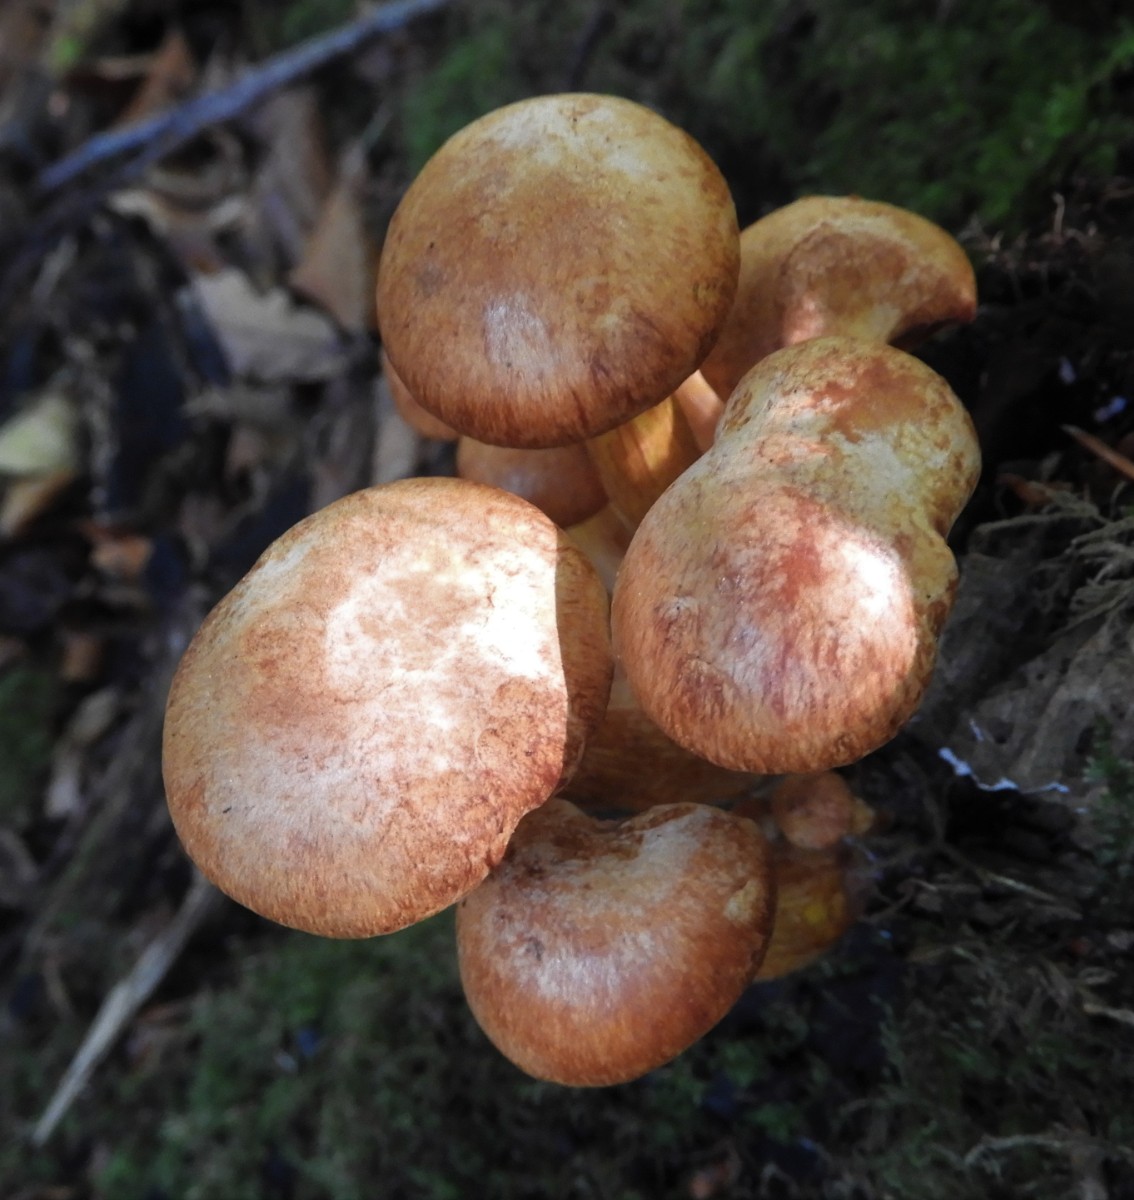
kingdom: Fungi
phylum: Basidiomycota
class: Agaricomycetes
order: Agaricales
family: Hymenogastraceae
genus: Gymnopilus
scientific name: Gymnopilus spectabilis
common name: fibret flammehat
